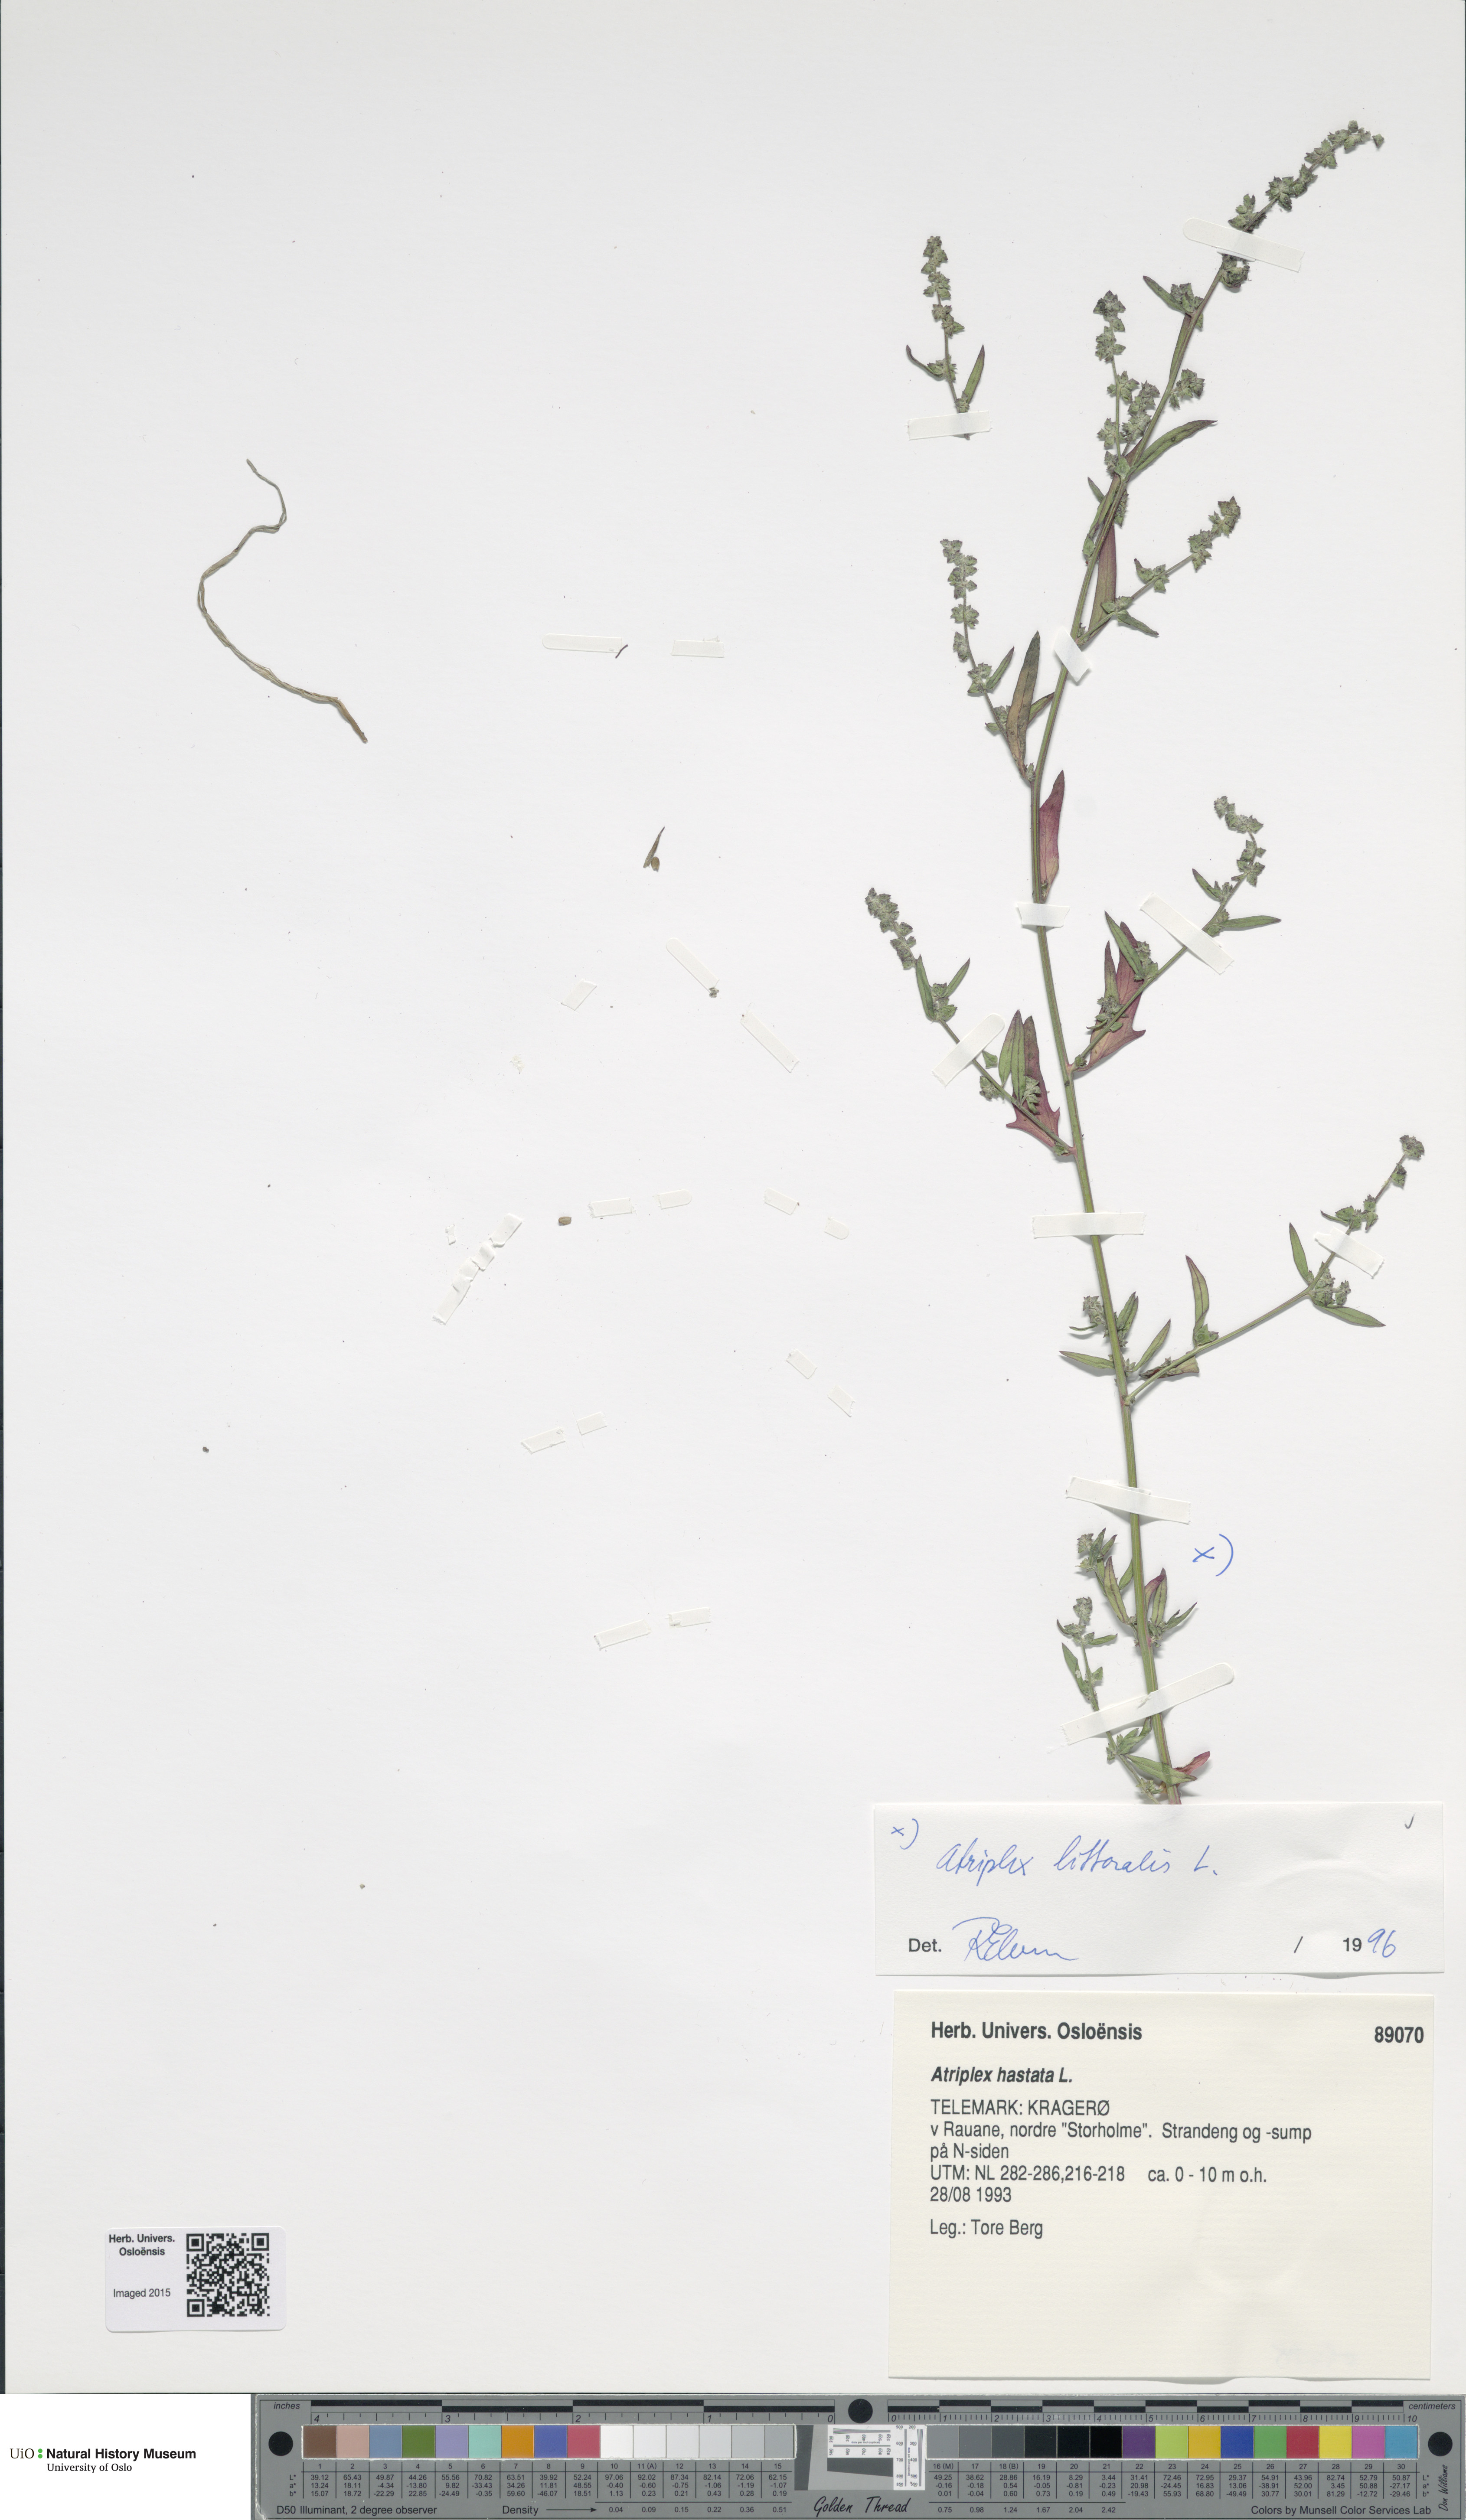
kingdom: Plantae
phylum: Tracheophyta
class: Magnoliopsida
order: Caryophyllales
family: Amaranthaceae
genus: Atriplex
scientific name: Atriplex littoralis
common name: Grass-leaved orache
